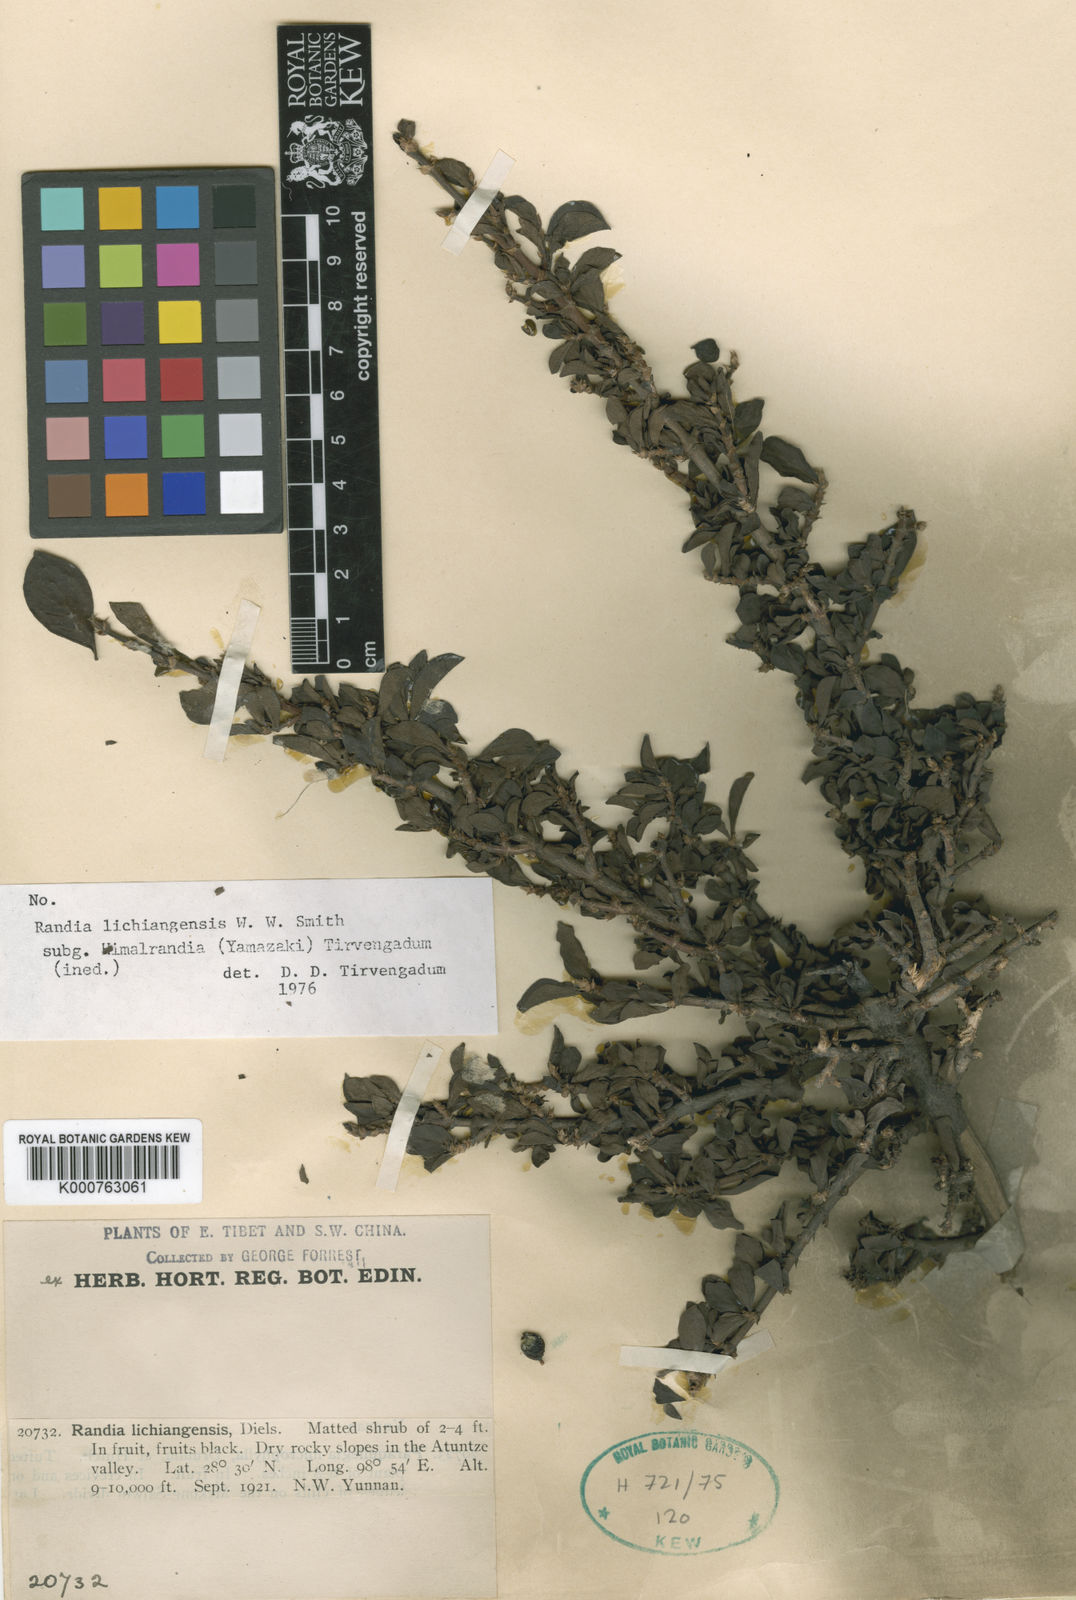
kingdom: Plantae
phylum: Tracheophyta
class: Magnoliopsida
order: Gentianales
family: Rubiaceae
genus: Himalrandia
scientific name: Himalrandia lichiangensis
